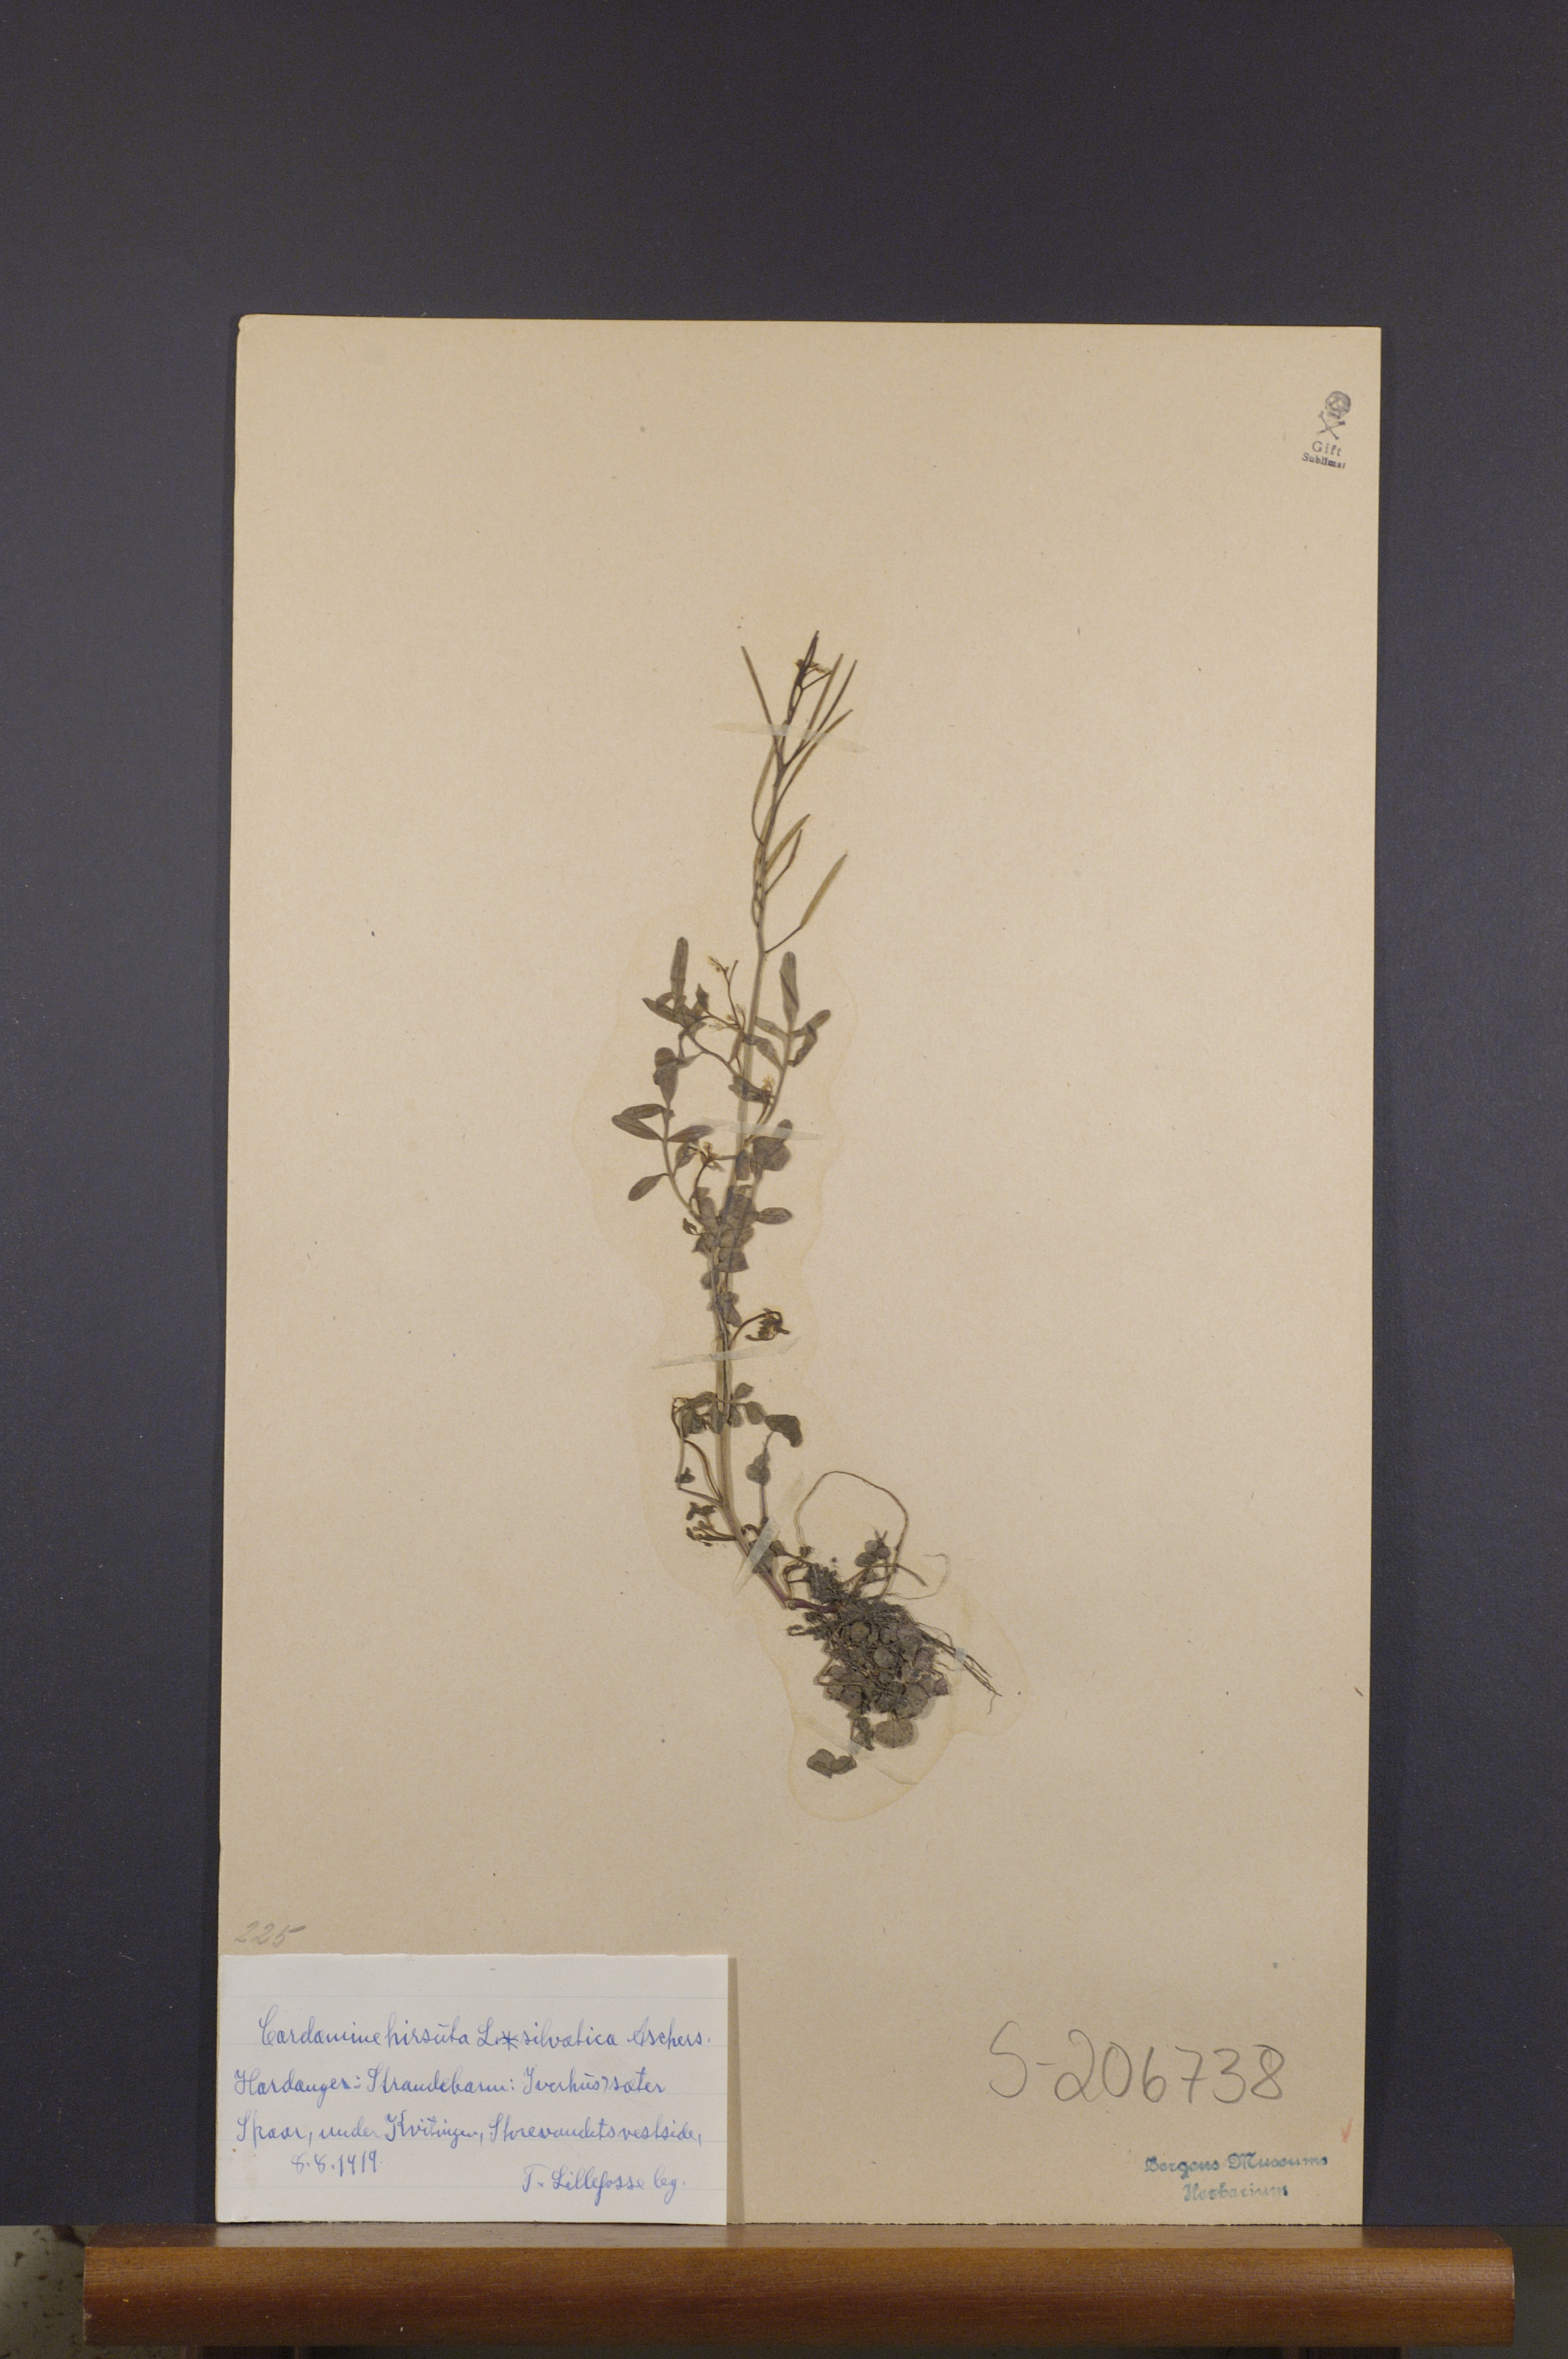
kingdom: Plantae
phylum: Tracheophyta
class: Magnoliopsida
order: Brassicales
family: Brassicaceae
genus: Cardamine
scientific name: Cardamine flexuosa
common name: Woodland bittercress
